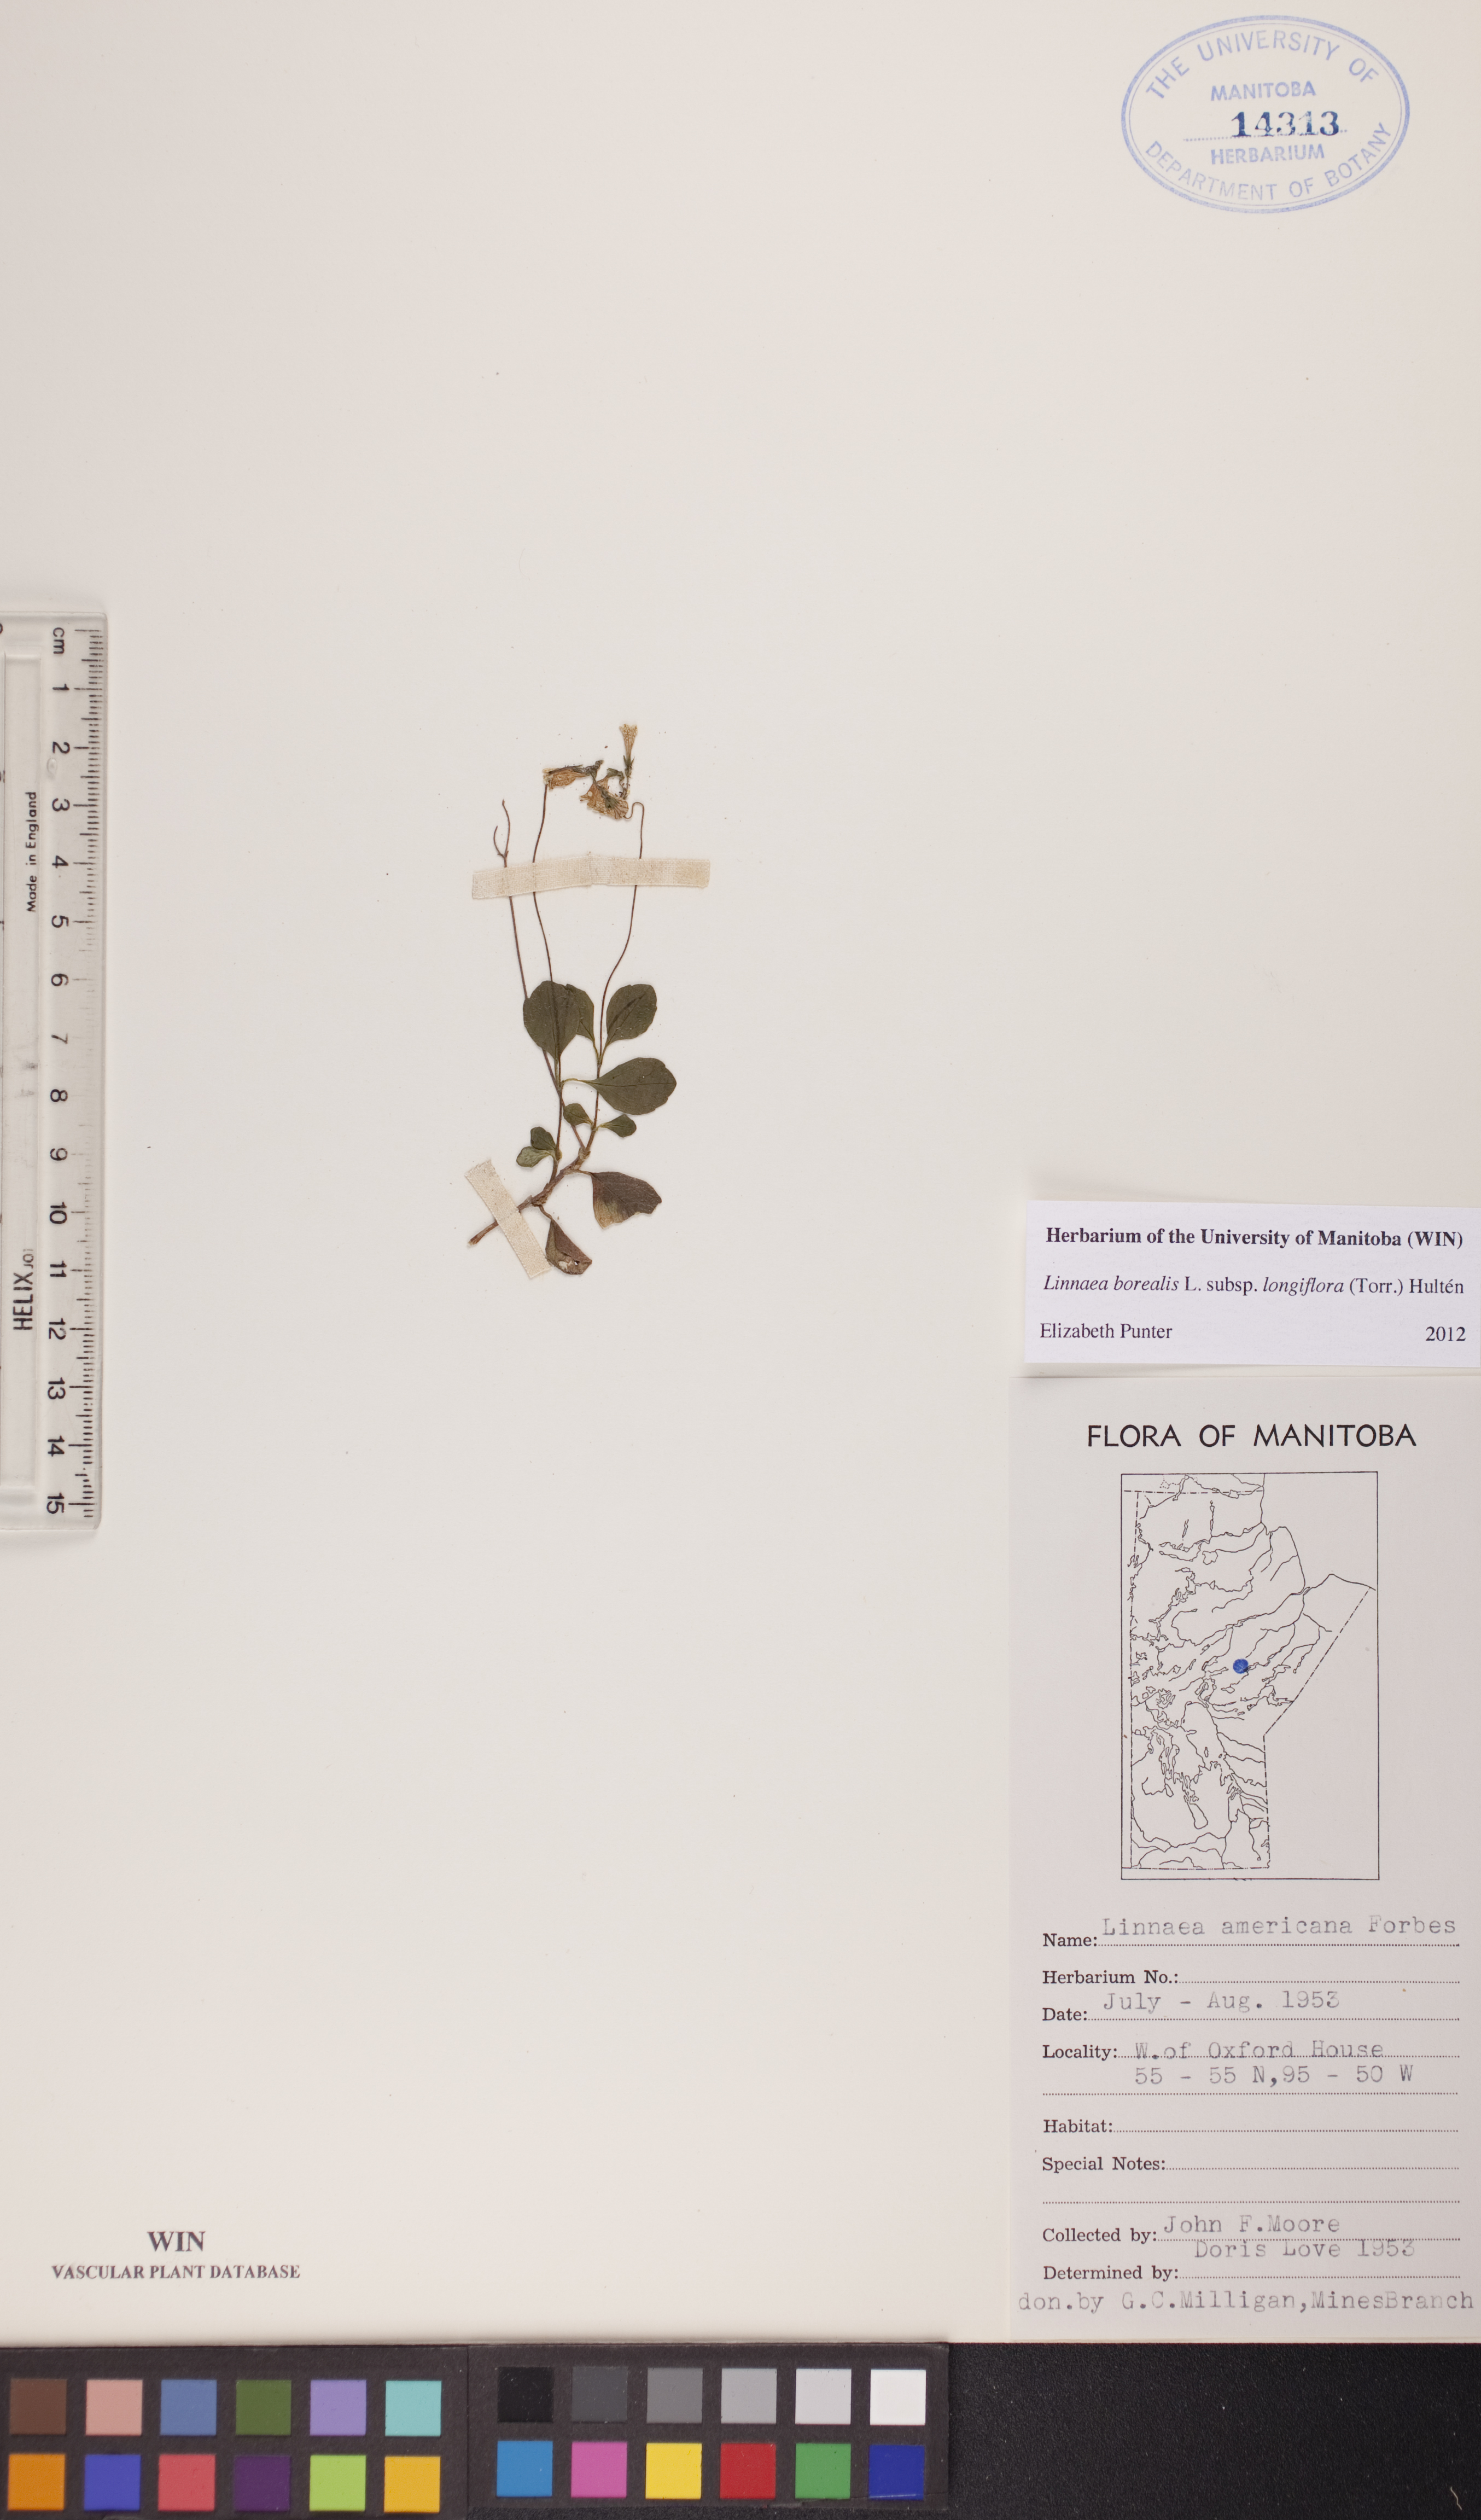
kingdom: Plantae
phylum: Tracheophyta
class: Magnoliopsida
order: Dipsacales
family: Caprifoliaceae
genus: Linnaea
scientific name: Linnaea borealis
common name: Twinflower
